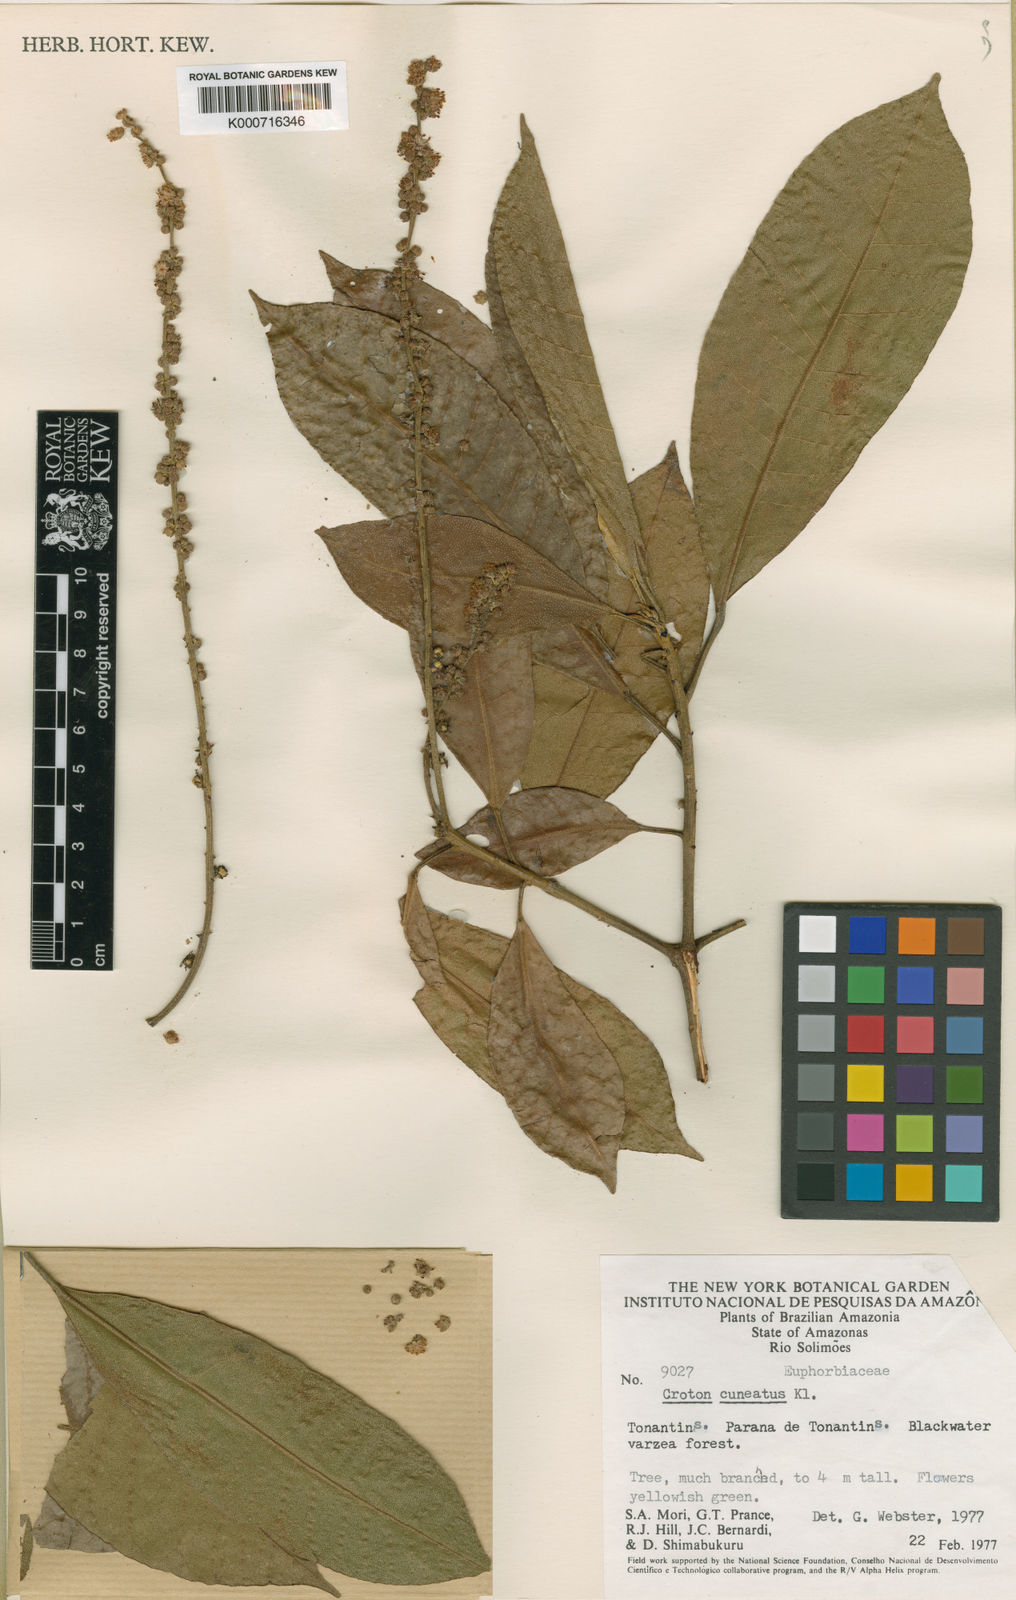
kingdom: Plantae
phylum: Tracheophyta
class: Magnoliopsida
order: Malpighiales
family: Euphorbiaceae
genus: Croton
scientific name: Croton cuneatus
